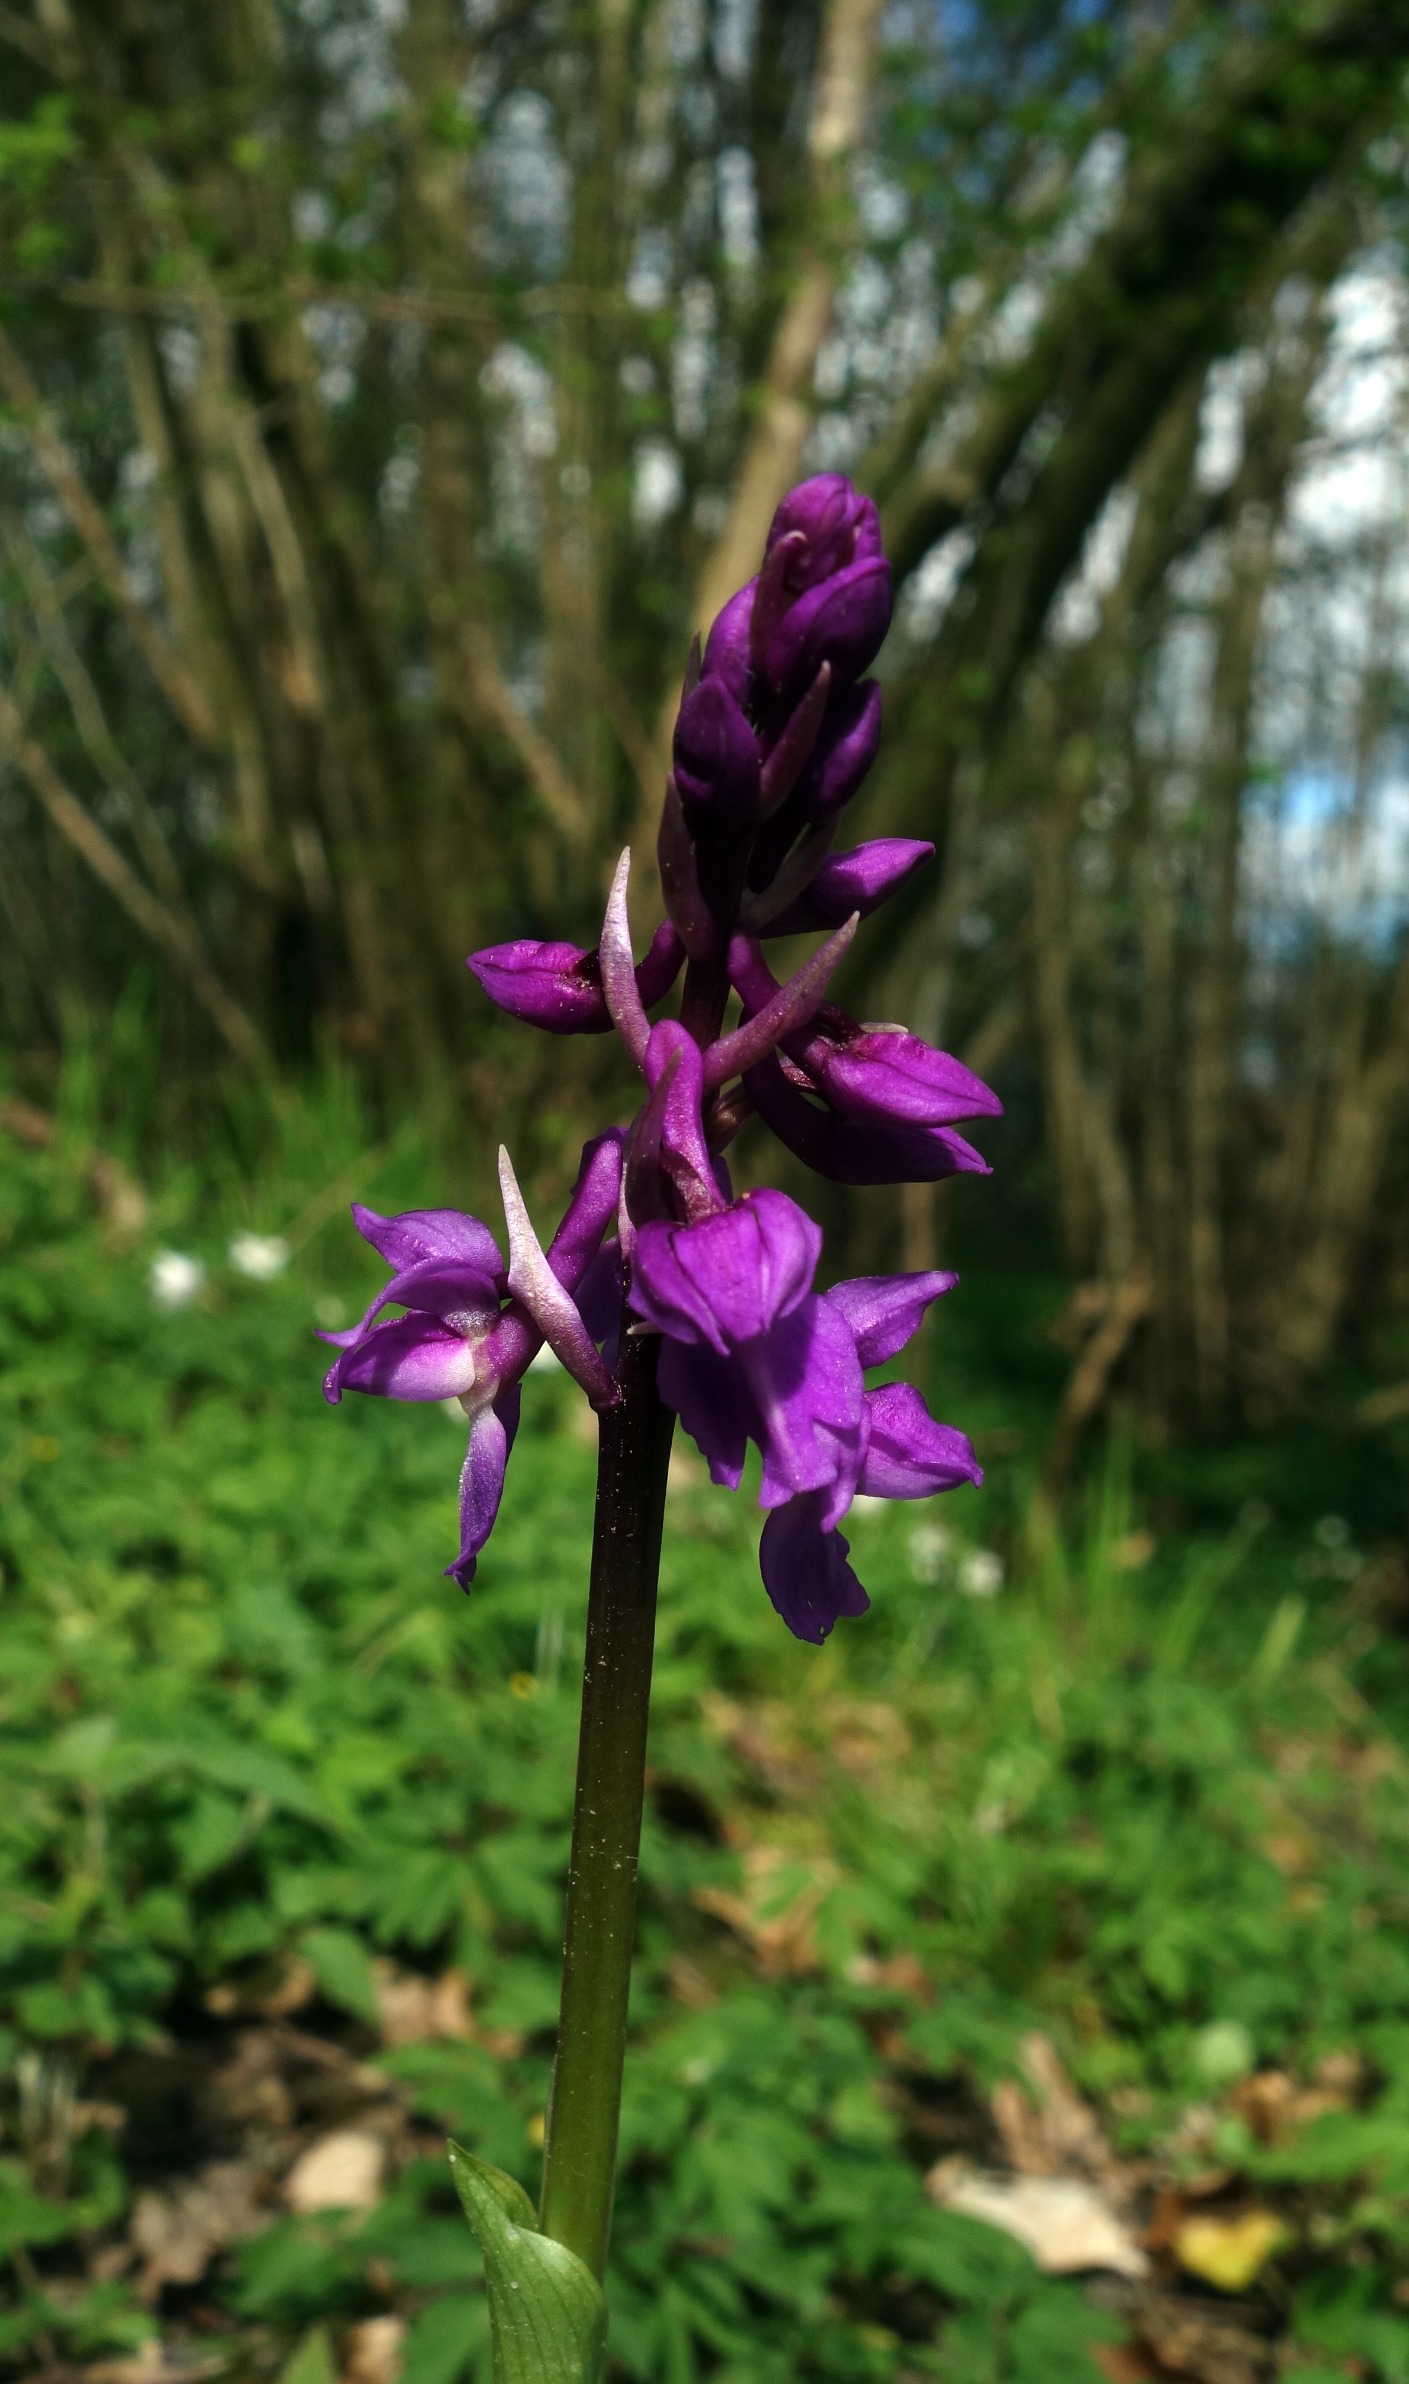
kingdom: Plantae
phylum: Tracheophyta
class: Liliopsida
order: Asparagales
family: Orchidaceae
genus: Orchis
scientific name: Orchis mascula
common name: Tyndakset gøgeurt
